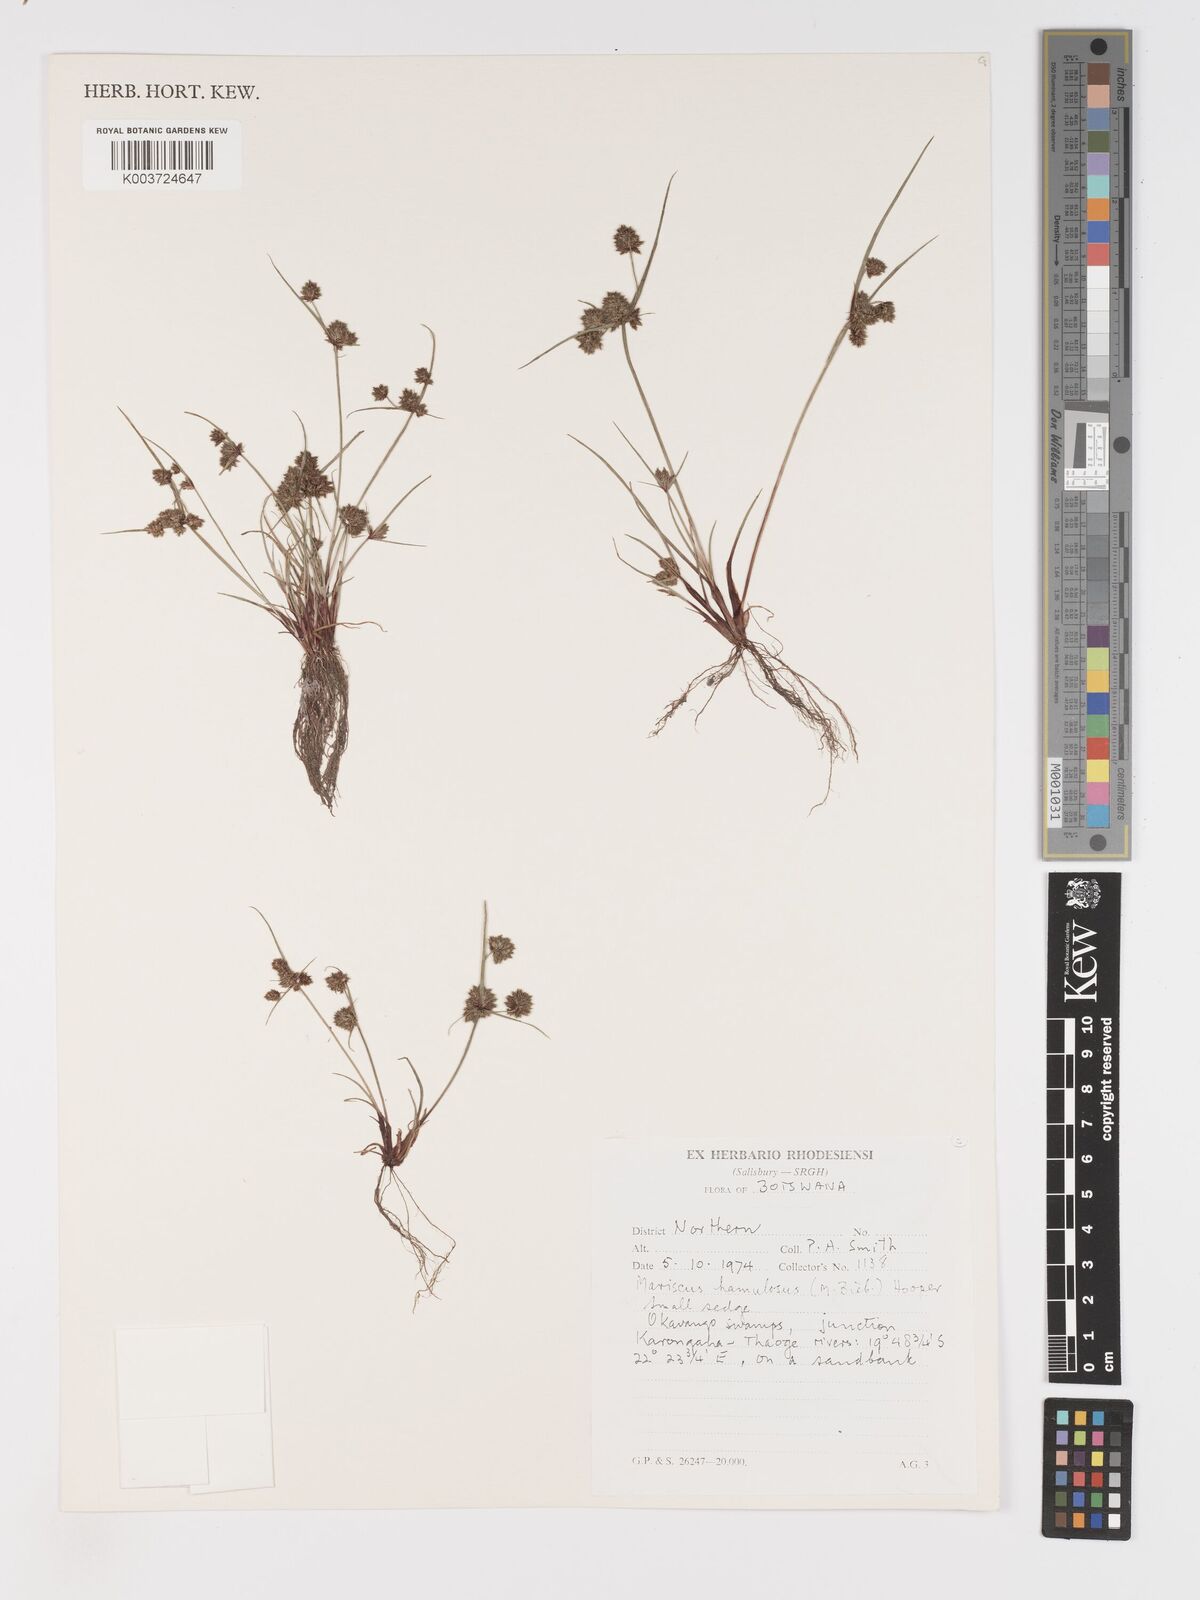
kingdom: Plantae
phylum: Tracheophyta
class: Liliopsida
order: Poales
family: Cyperaceae
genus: Cyperus
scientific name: Cyperus hamulosus
